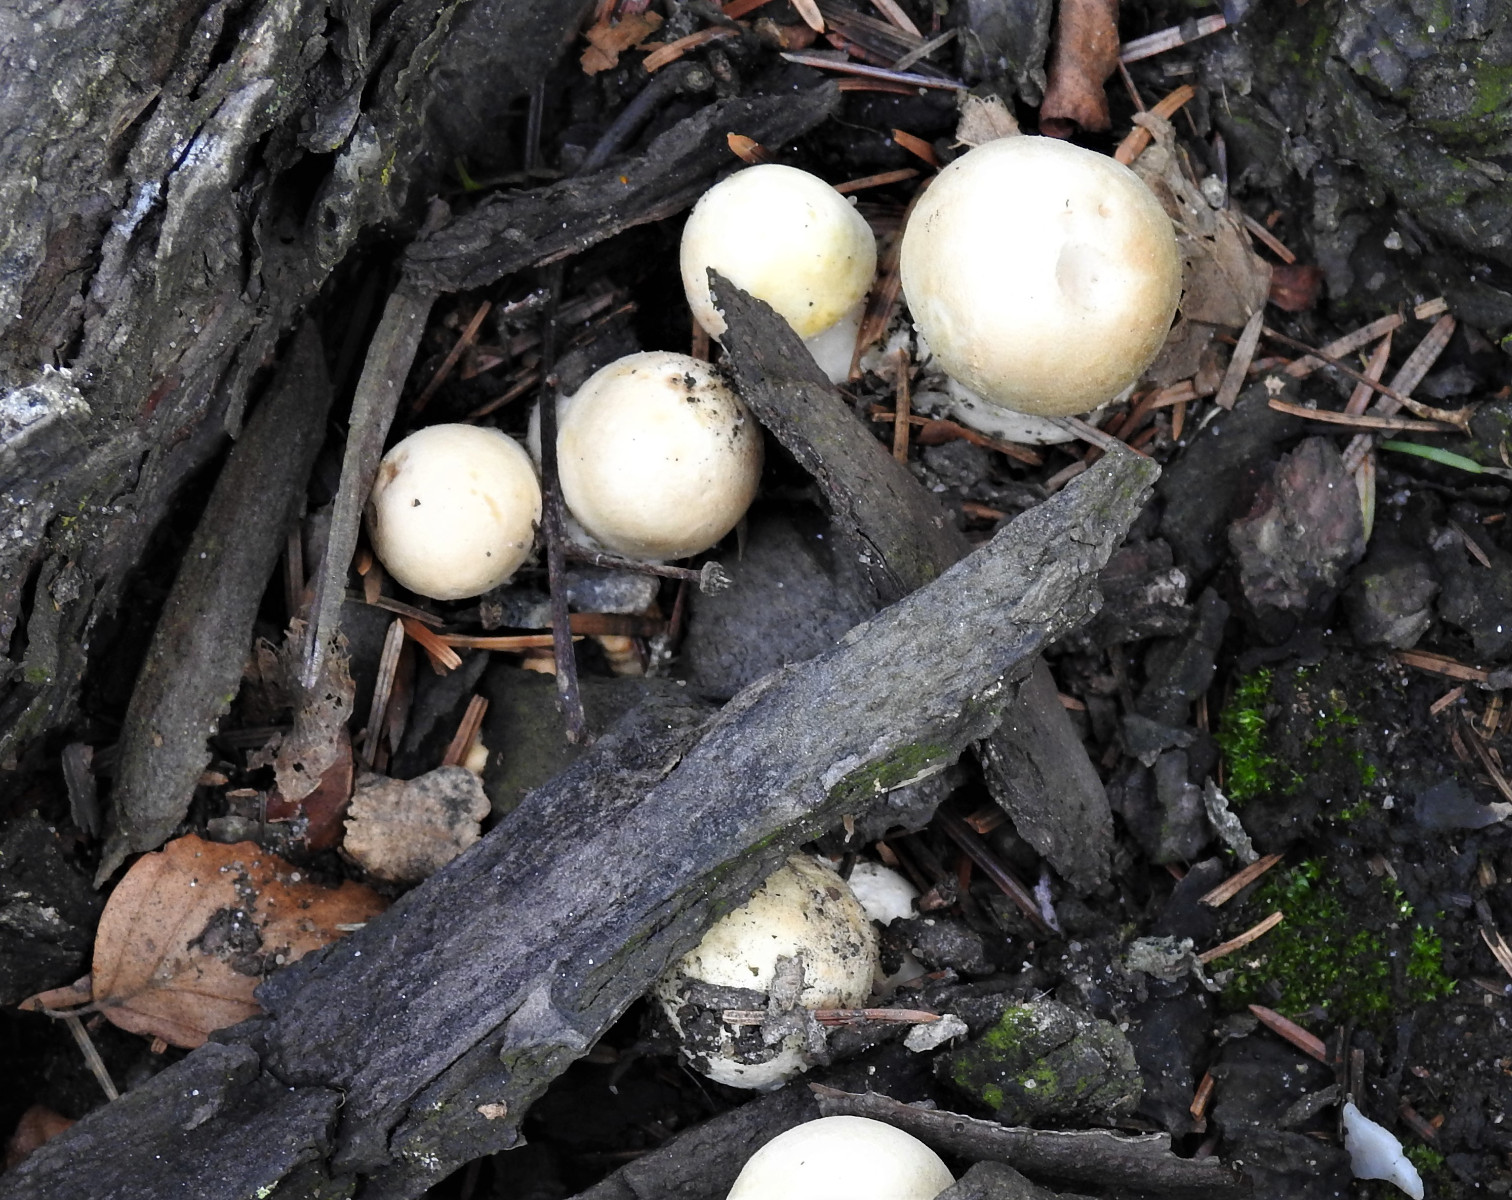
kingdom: Fungi
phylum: Basidiomycota
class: Agaricomycetes
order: Agaricales
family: Agaricaceae
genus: Agaricus
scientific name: Agaricus
